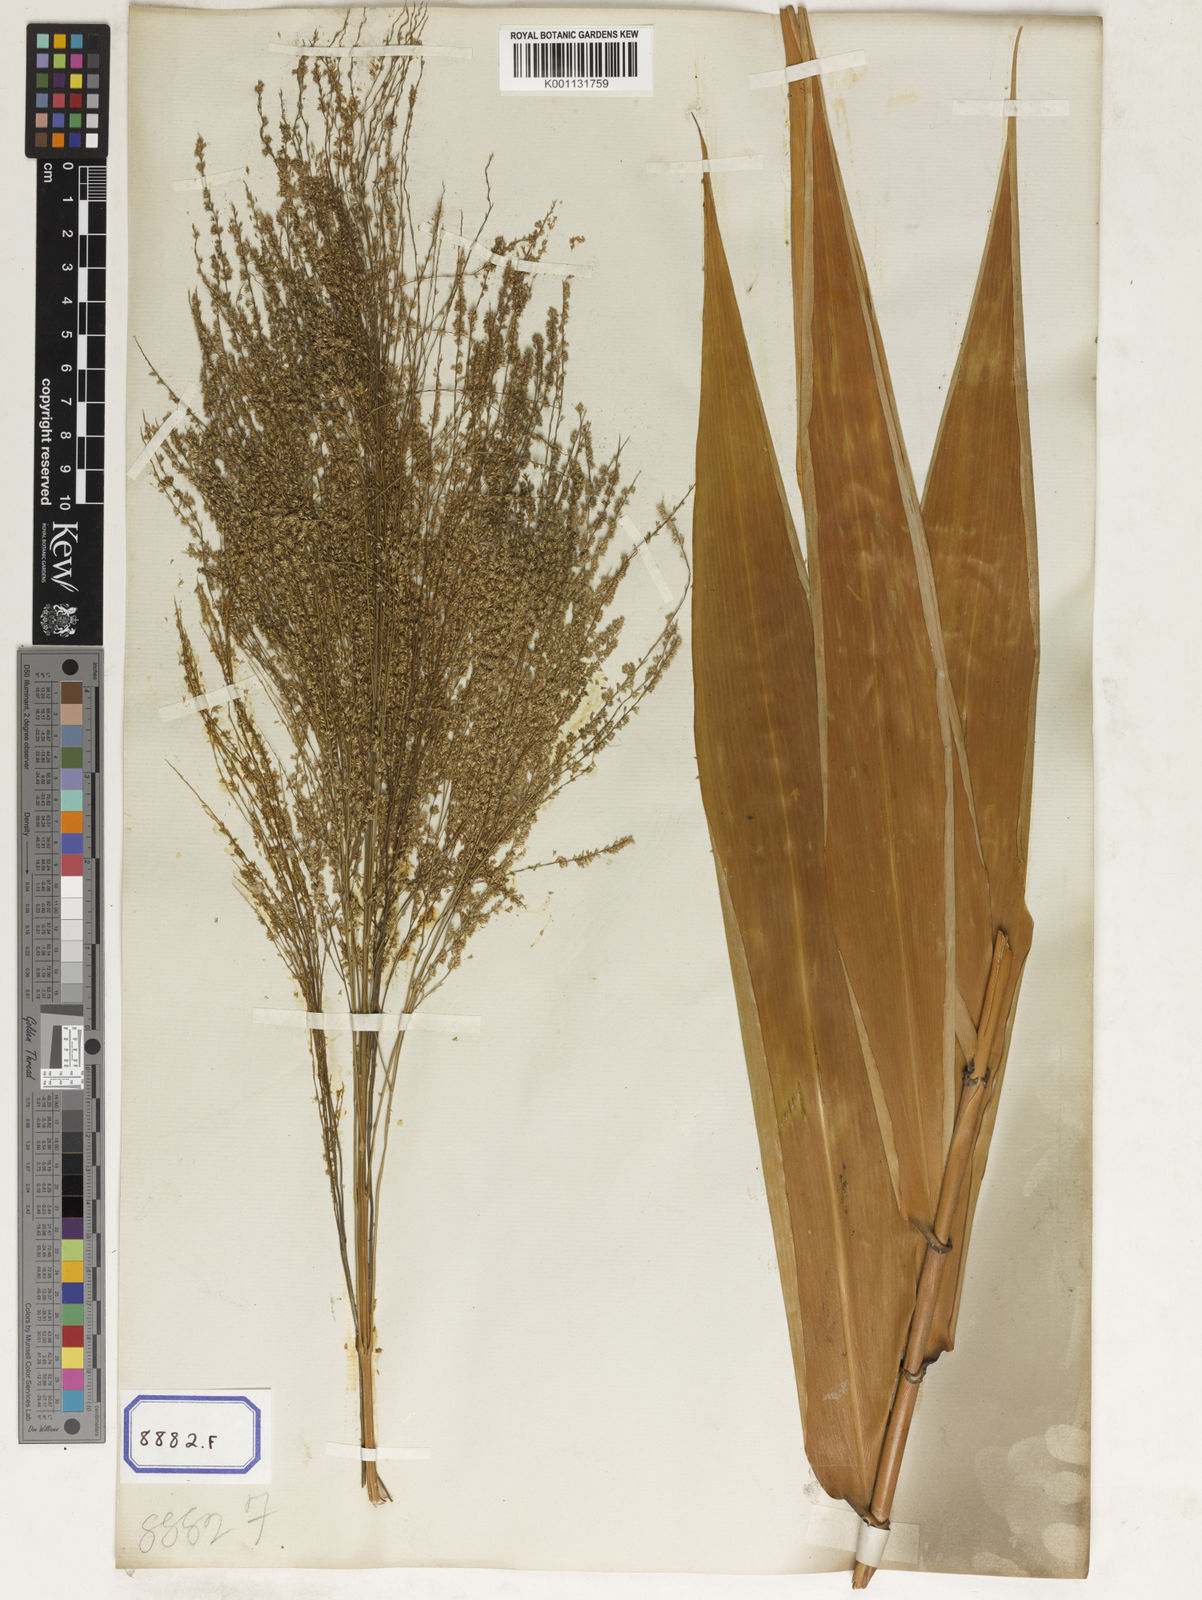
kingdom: Plantae
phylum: Tracheophyta
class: Liliopsida
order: Poales
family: Poaceae
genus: Thysanolaena
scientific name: Thysanolaena latifolia
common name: Tiger grass
